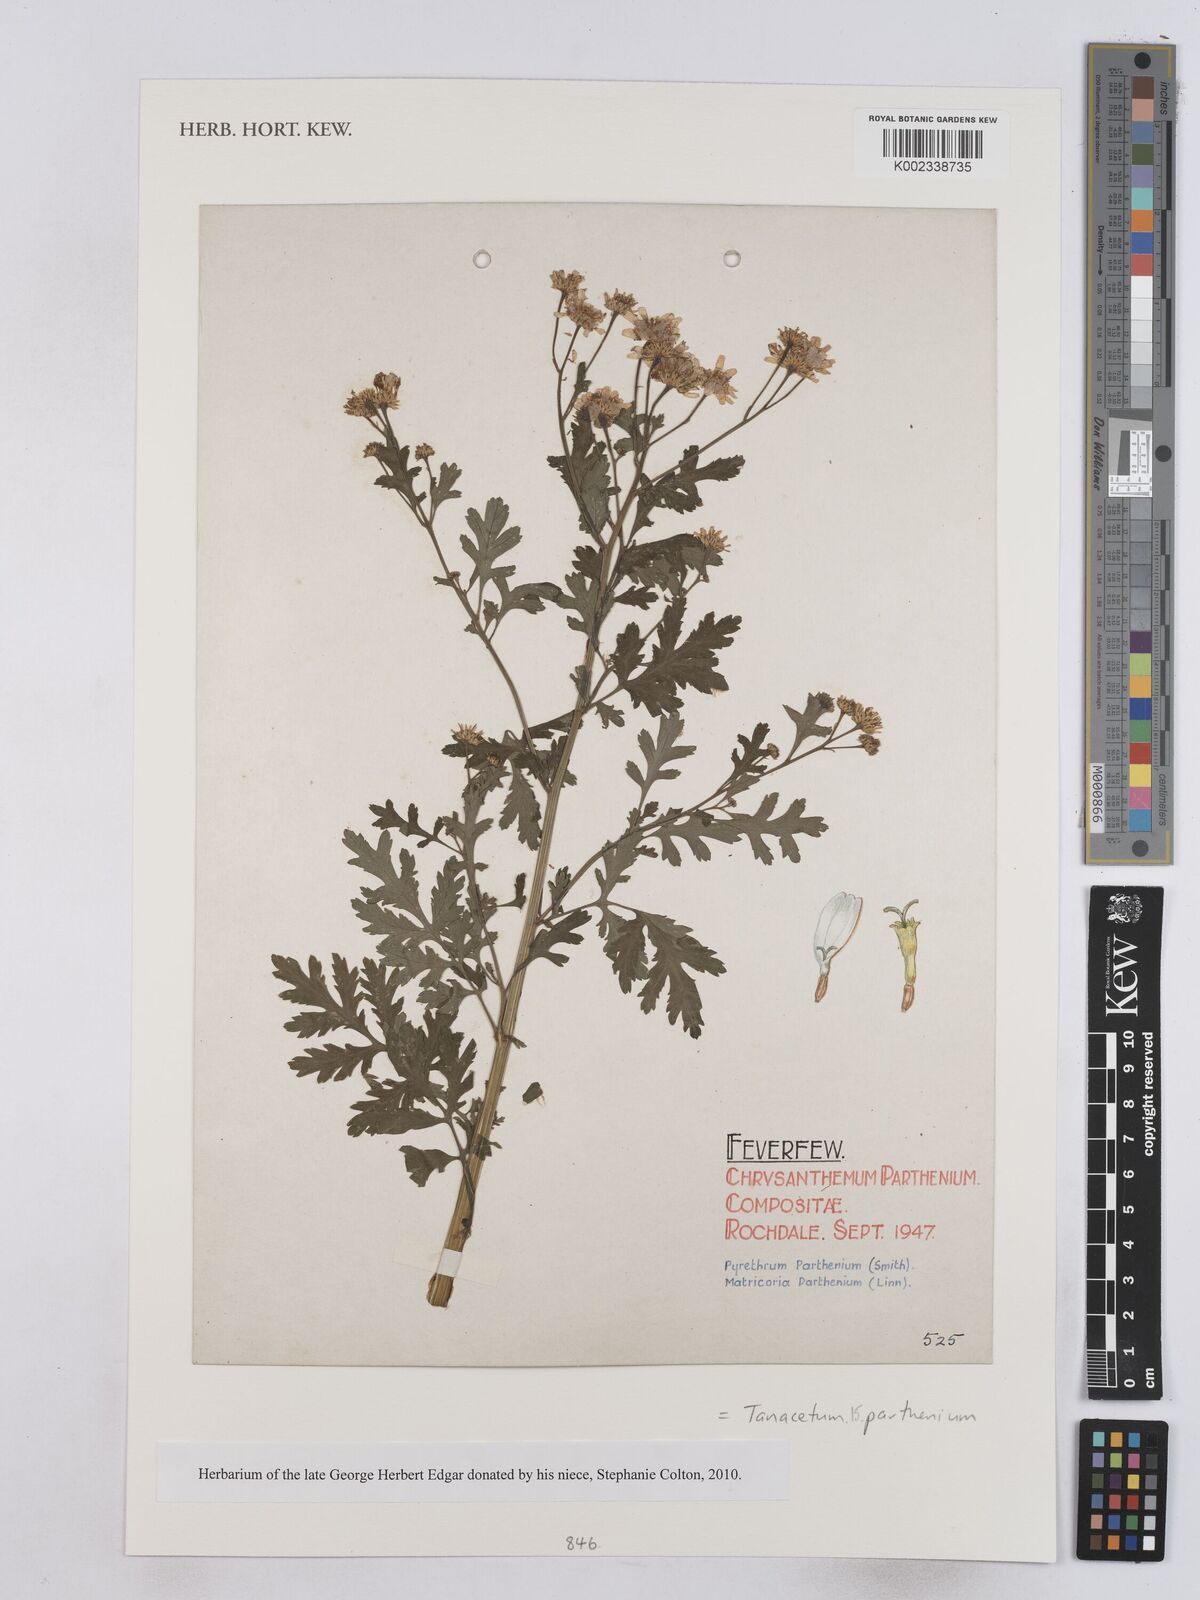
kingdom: Plantae
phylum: Tracheophyta
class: Magnoliopsida
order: Asterales
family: Asteraceae
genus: Tanacetum
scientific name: Tanacetum parthenium
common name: Feverfew
